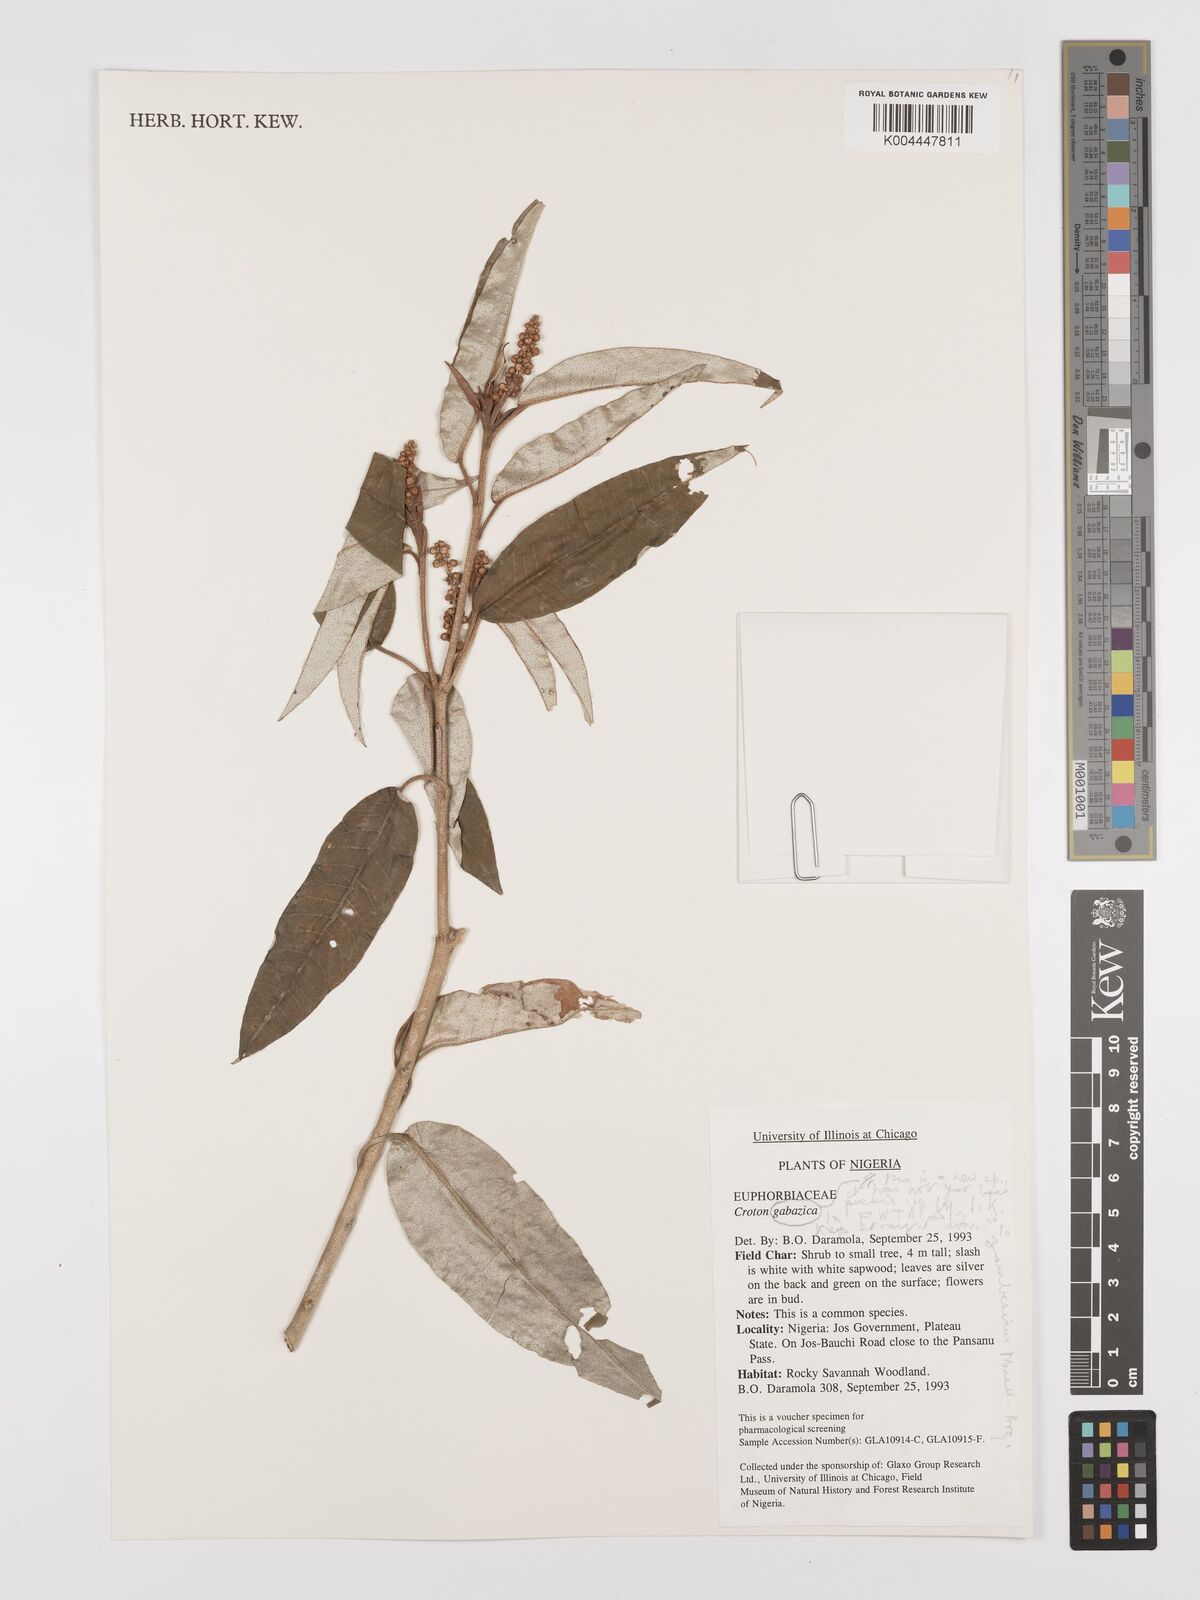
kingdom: Plantae
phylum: Tracheophyta
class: Magnoliopsida
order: Malpighiales
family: Euphorbiaceae
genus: Croton
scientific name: Croton
